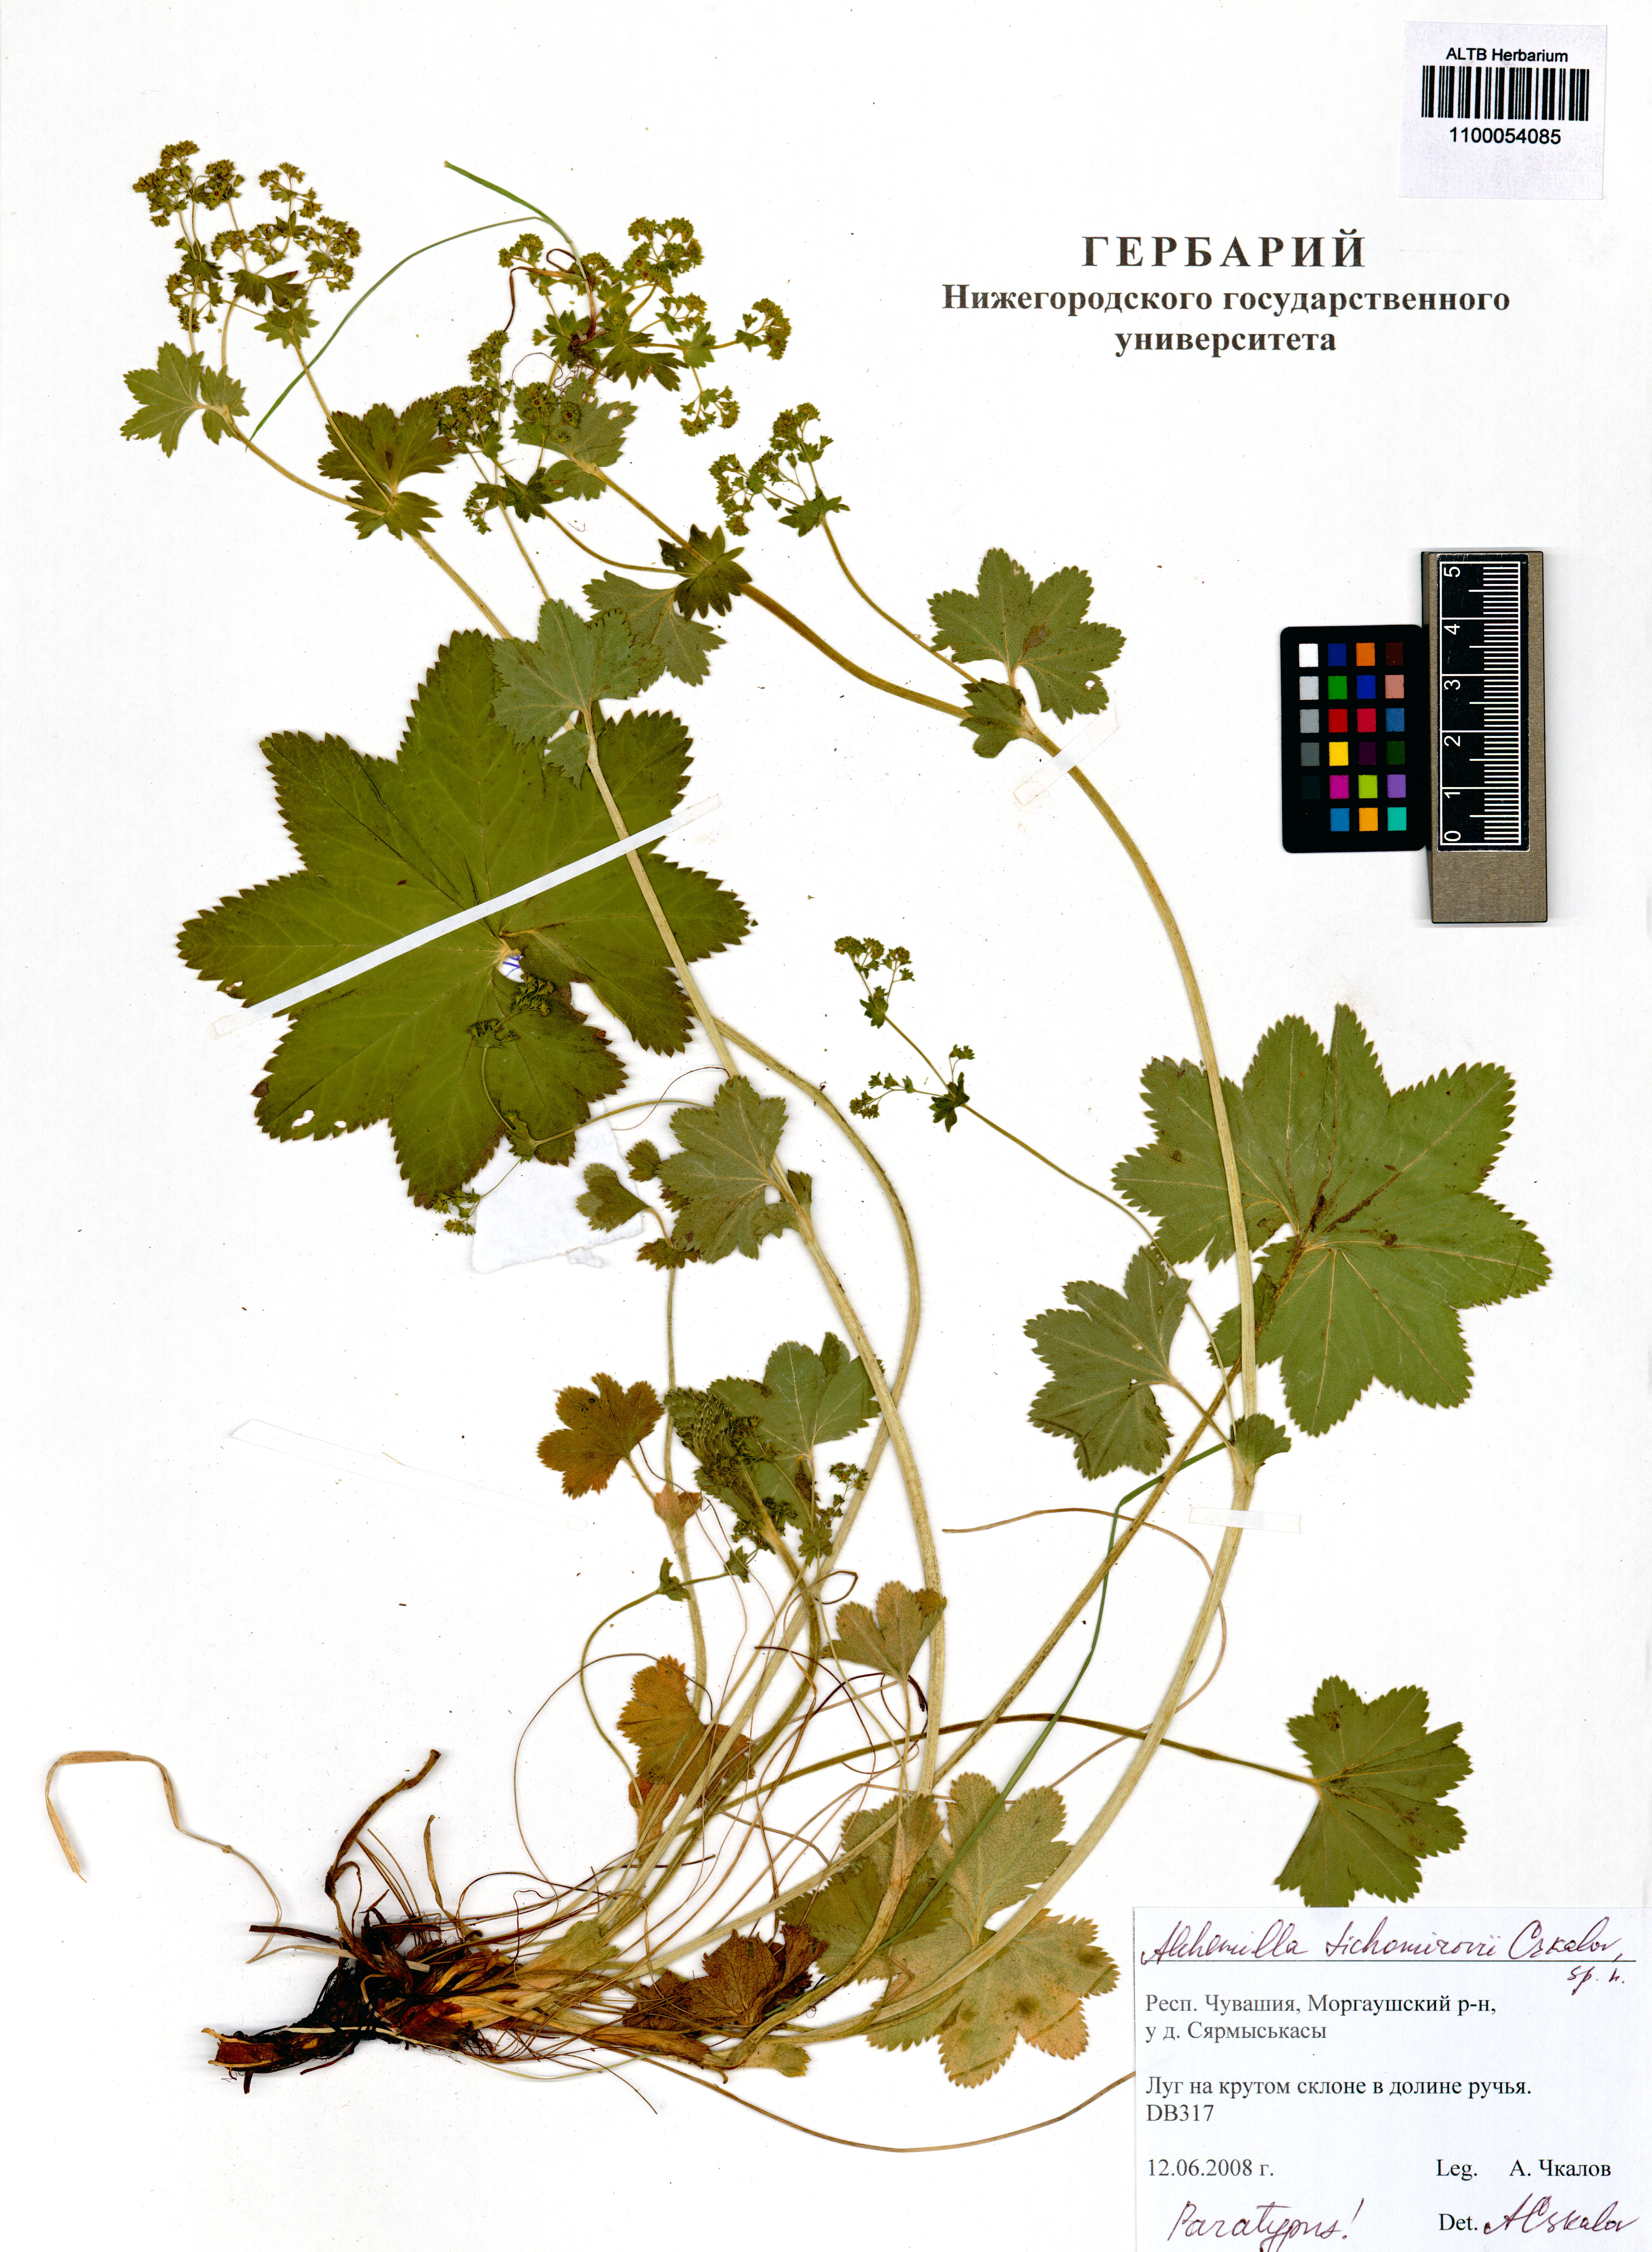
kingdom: Plantae
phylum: Tracheophyta
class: Magnoliopsida
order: Rosales
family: Rosaceae
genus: Alchemilla
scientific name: Alchemilla tichomirovii
